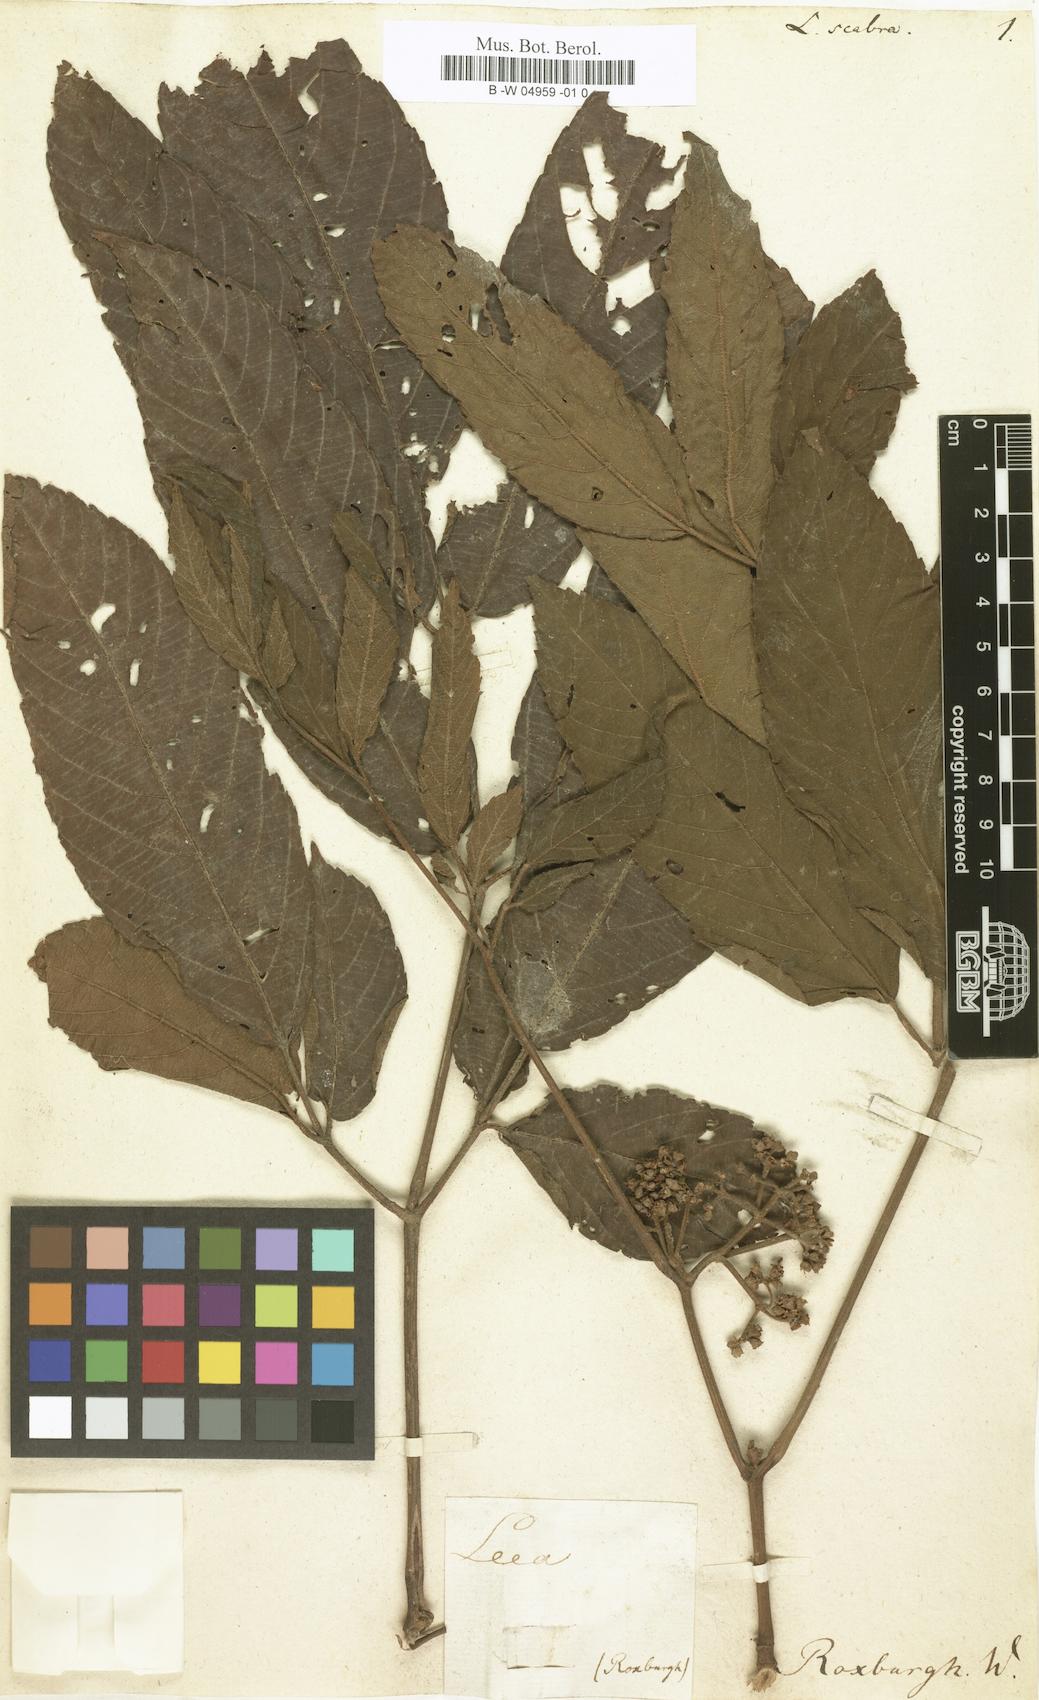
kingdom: Plantae
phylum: Tracheophyta
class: Magnoliopsida
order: Vitales
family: Vitaceae
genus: Leea
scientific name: Leea aequata
